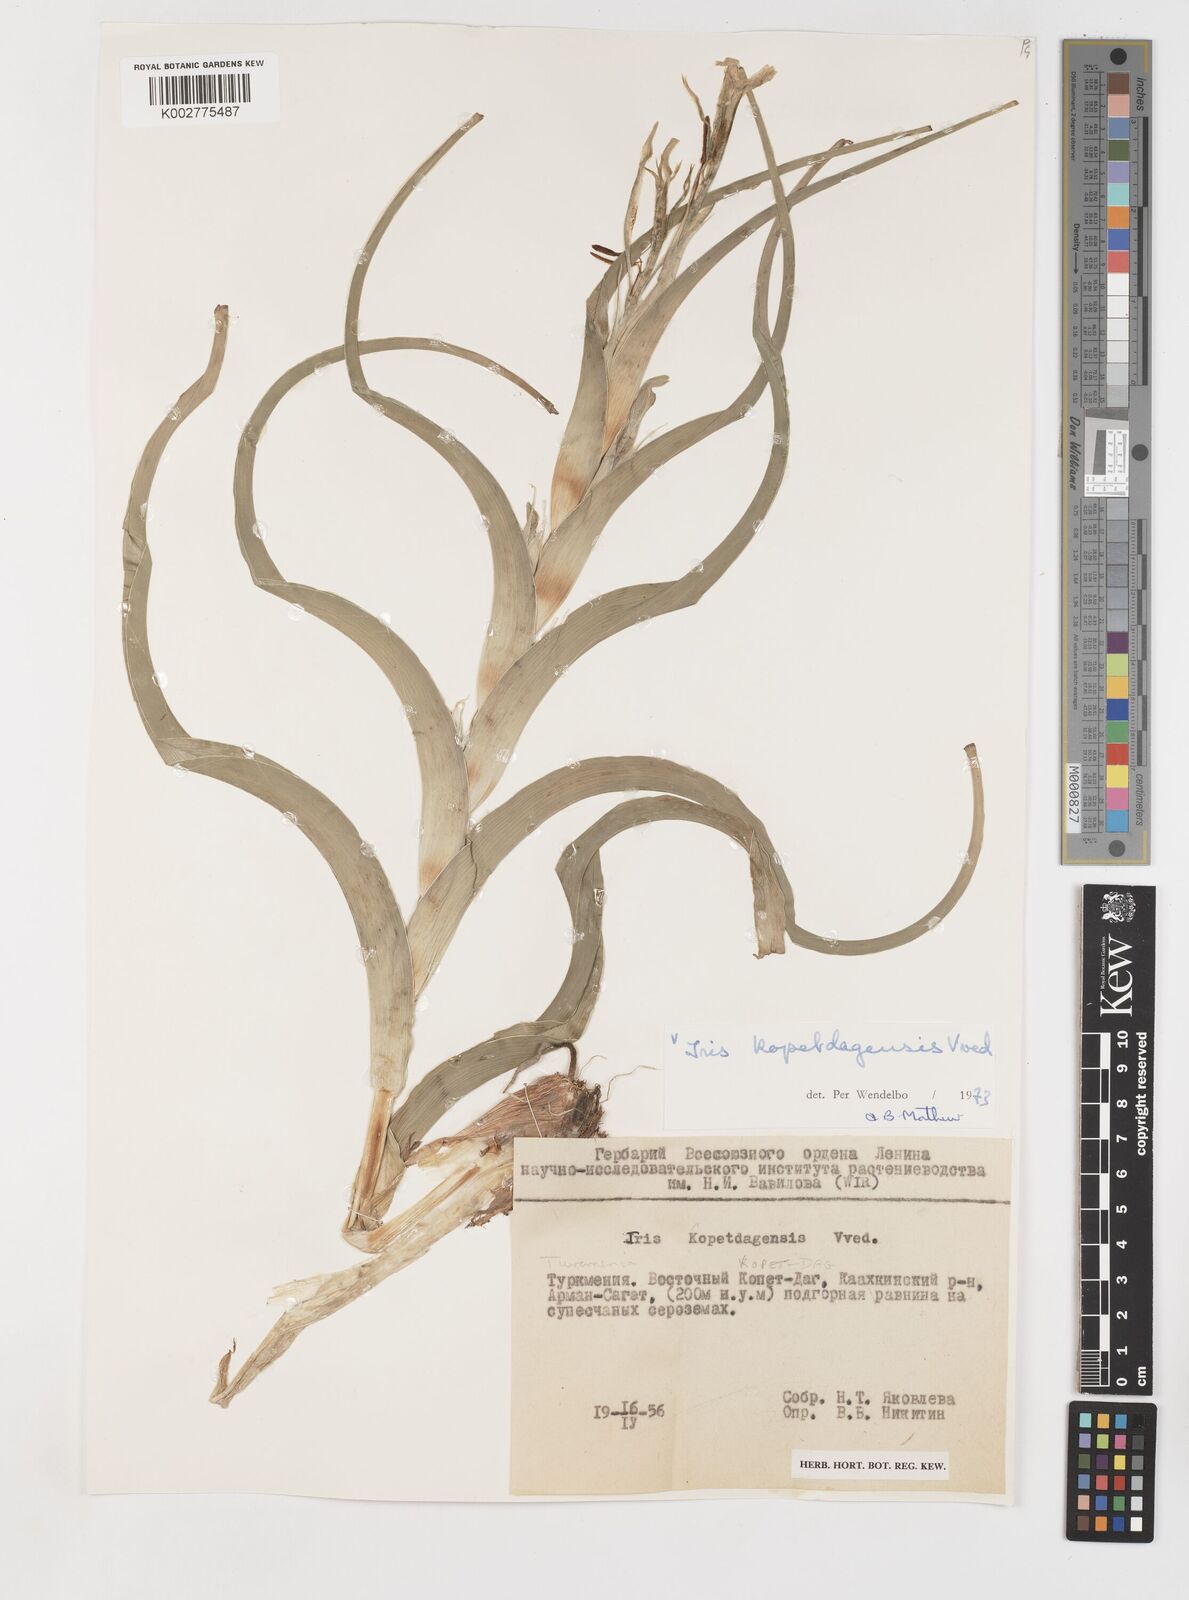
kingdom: Plantae
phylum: Tracheophyta
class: Liliopsida
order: Asparagales
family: Iridaceae
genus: Iris
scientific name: Iris kopetdagensis
